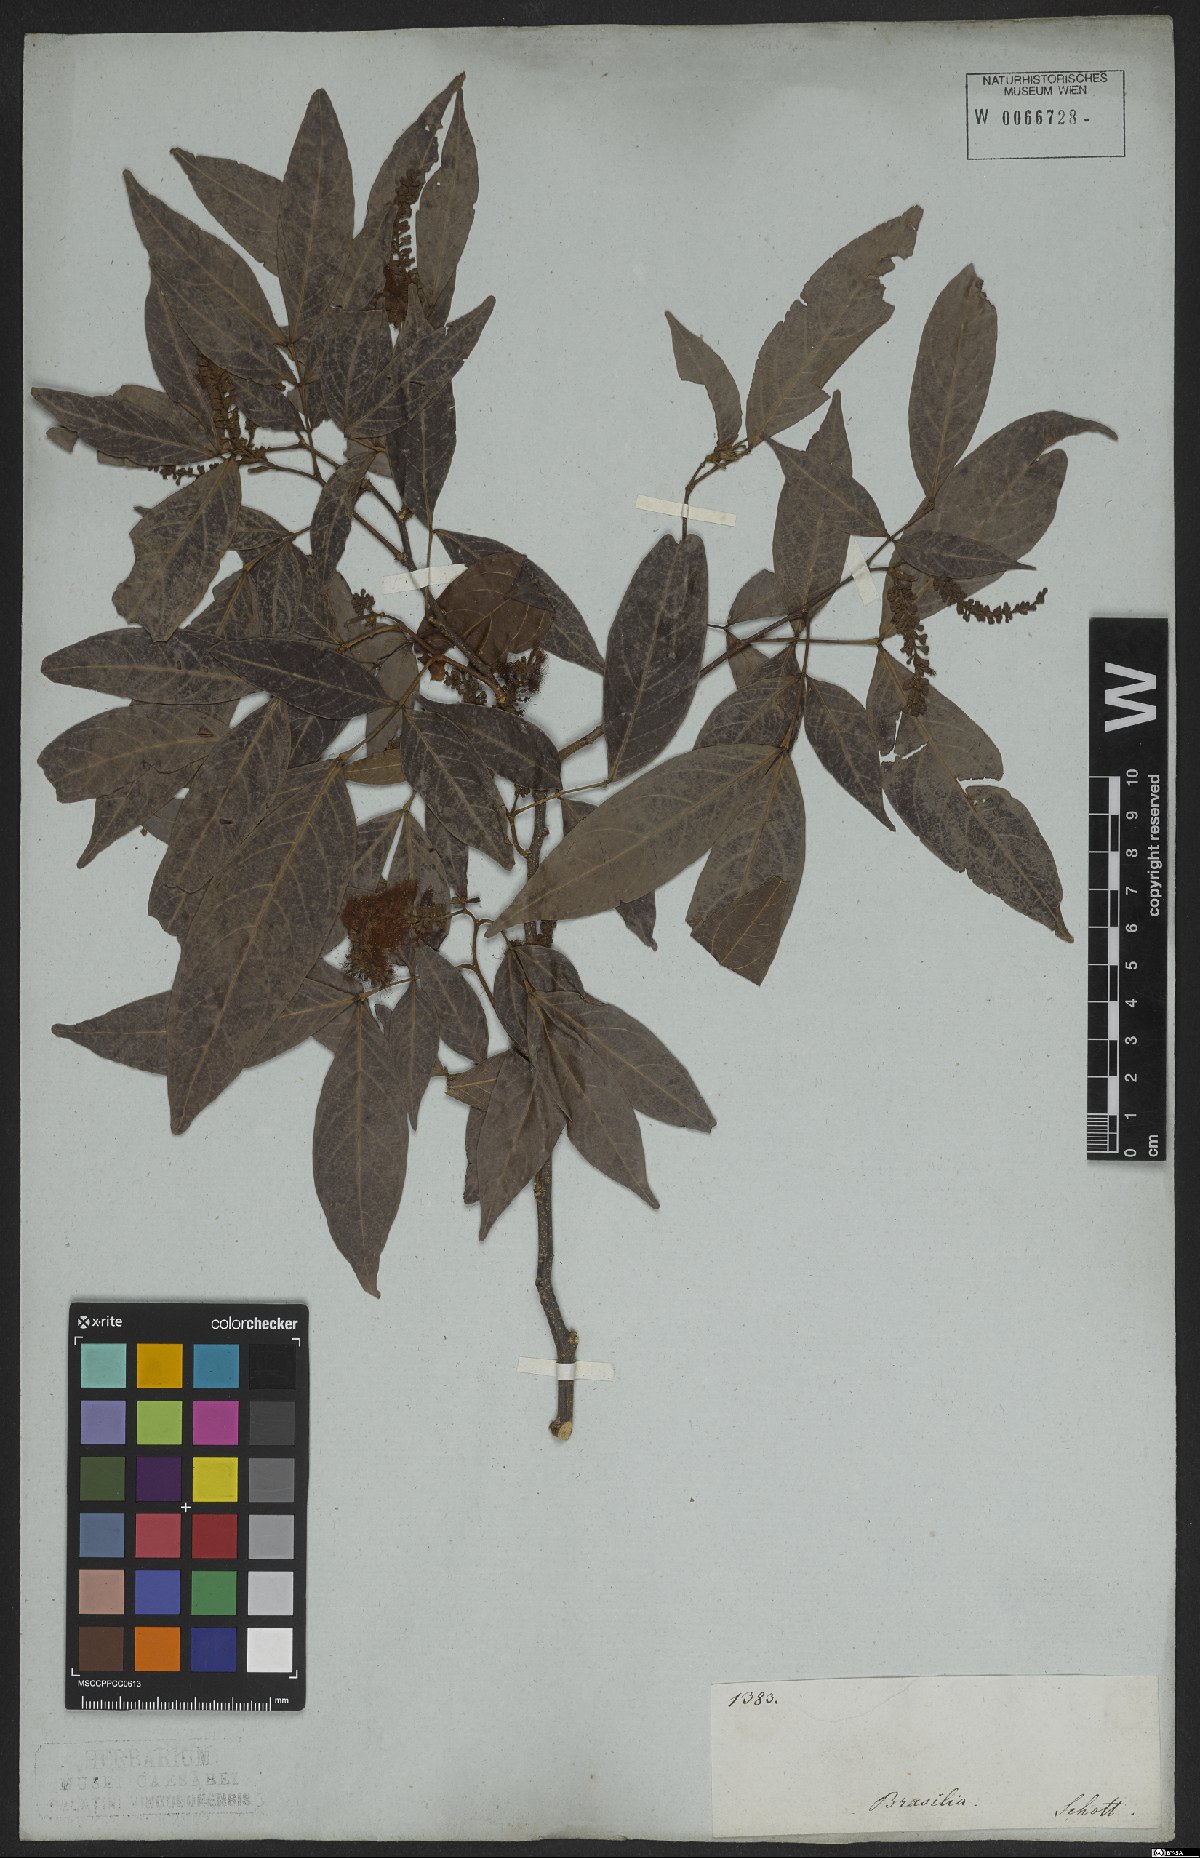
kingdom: Plantae
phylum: Tracheophyta
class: Magnoliopsida
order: Fabales
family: Fabaceae
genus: Inga
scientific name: Inga marginata
